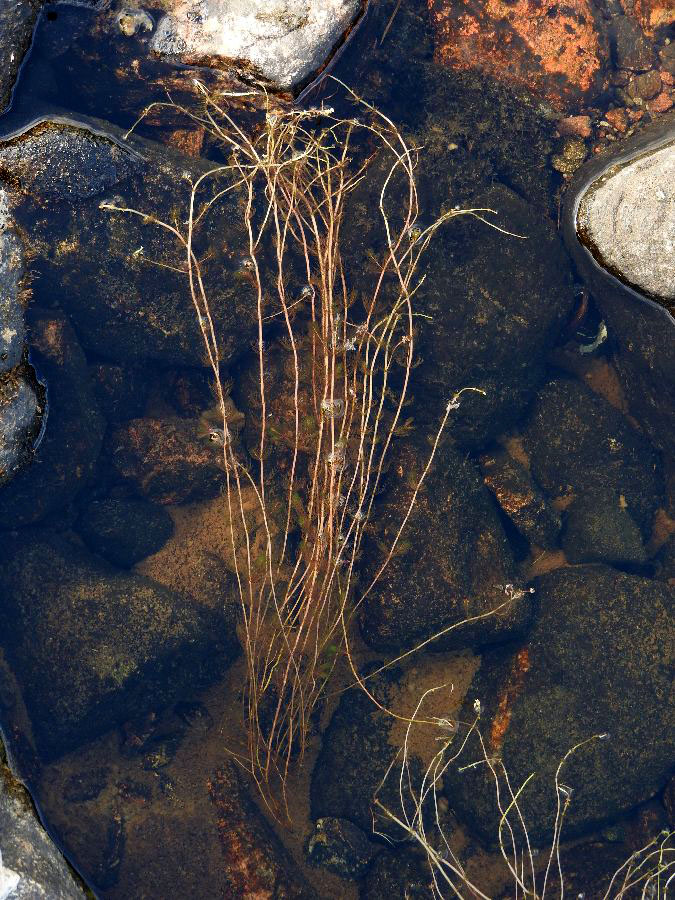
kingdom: Plantae
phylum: Tracheophyta
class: Magnoliopsida
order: Saxifragales
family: Haloragaceae
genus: Myriophyllum
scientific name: Myriophyllum alterniflorum
